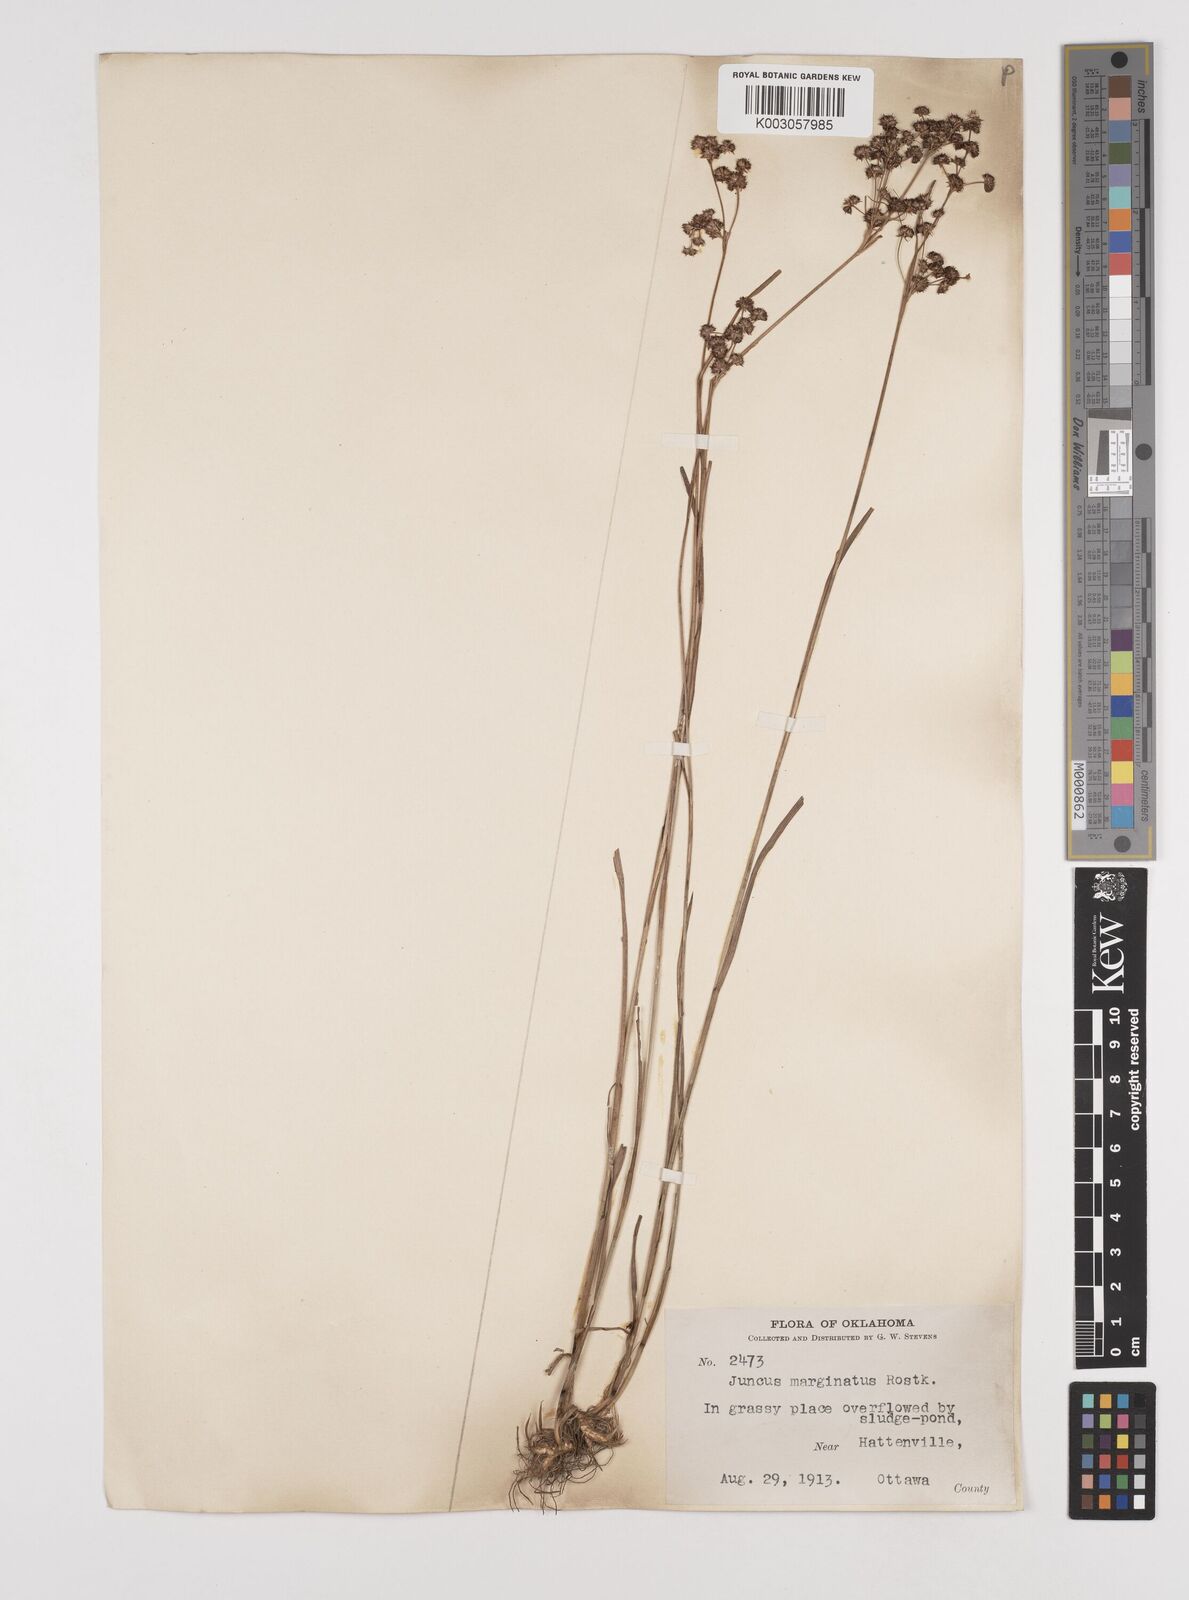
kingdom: Plantae
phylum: Tracheophyta
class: Liliopsida
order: Poales
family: Juncaceae
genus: Juncus
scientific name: Juncus marginatus
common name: Grass-leaf rush
